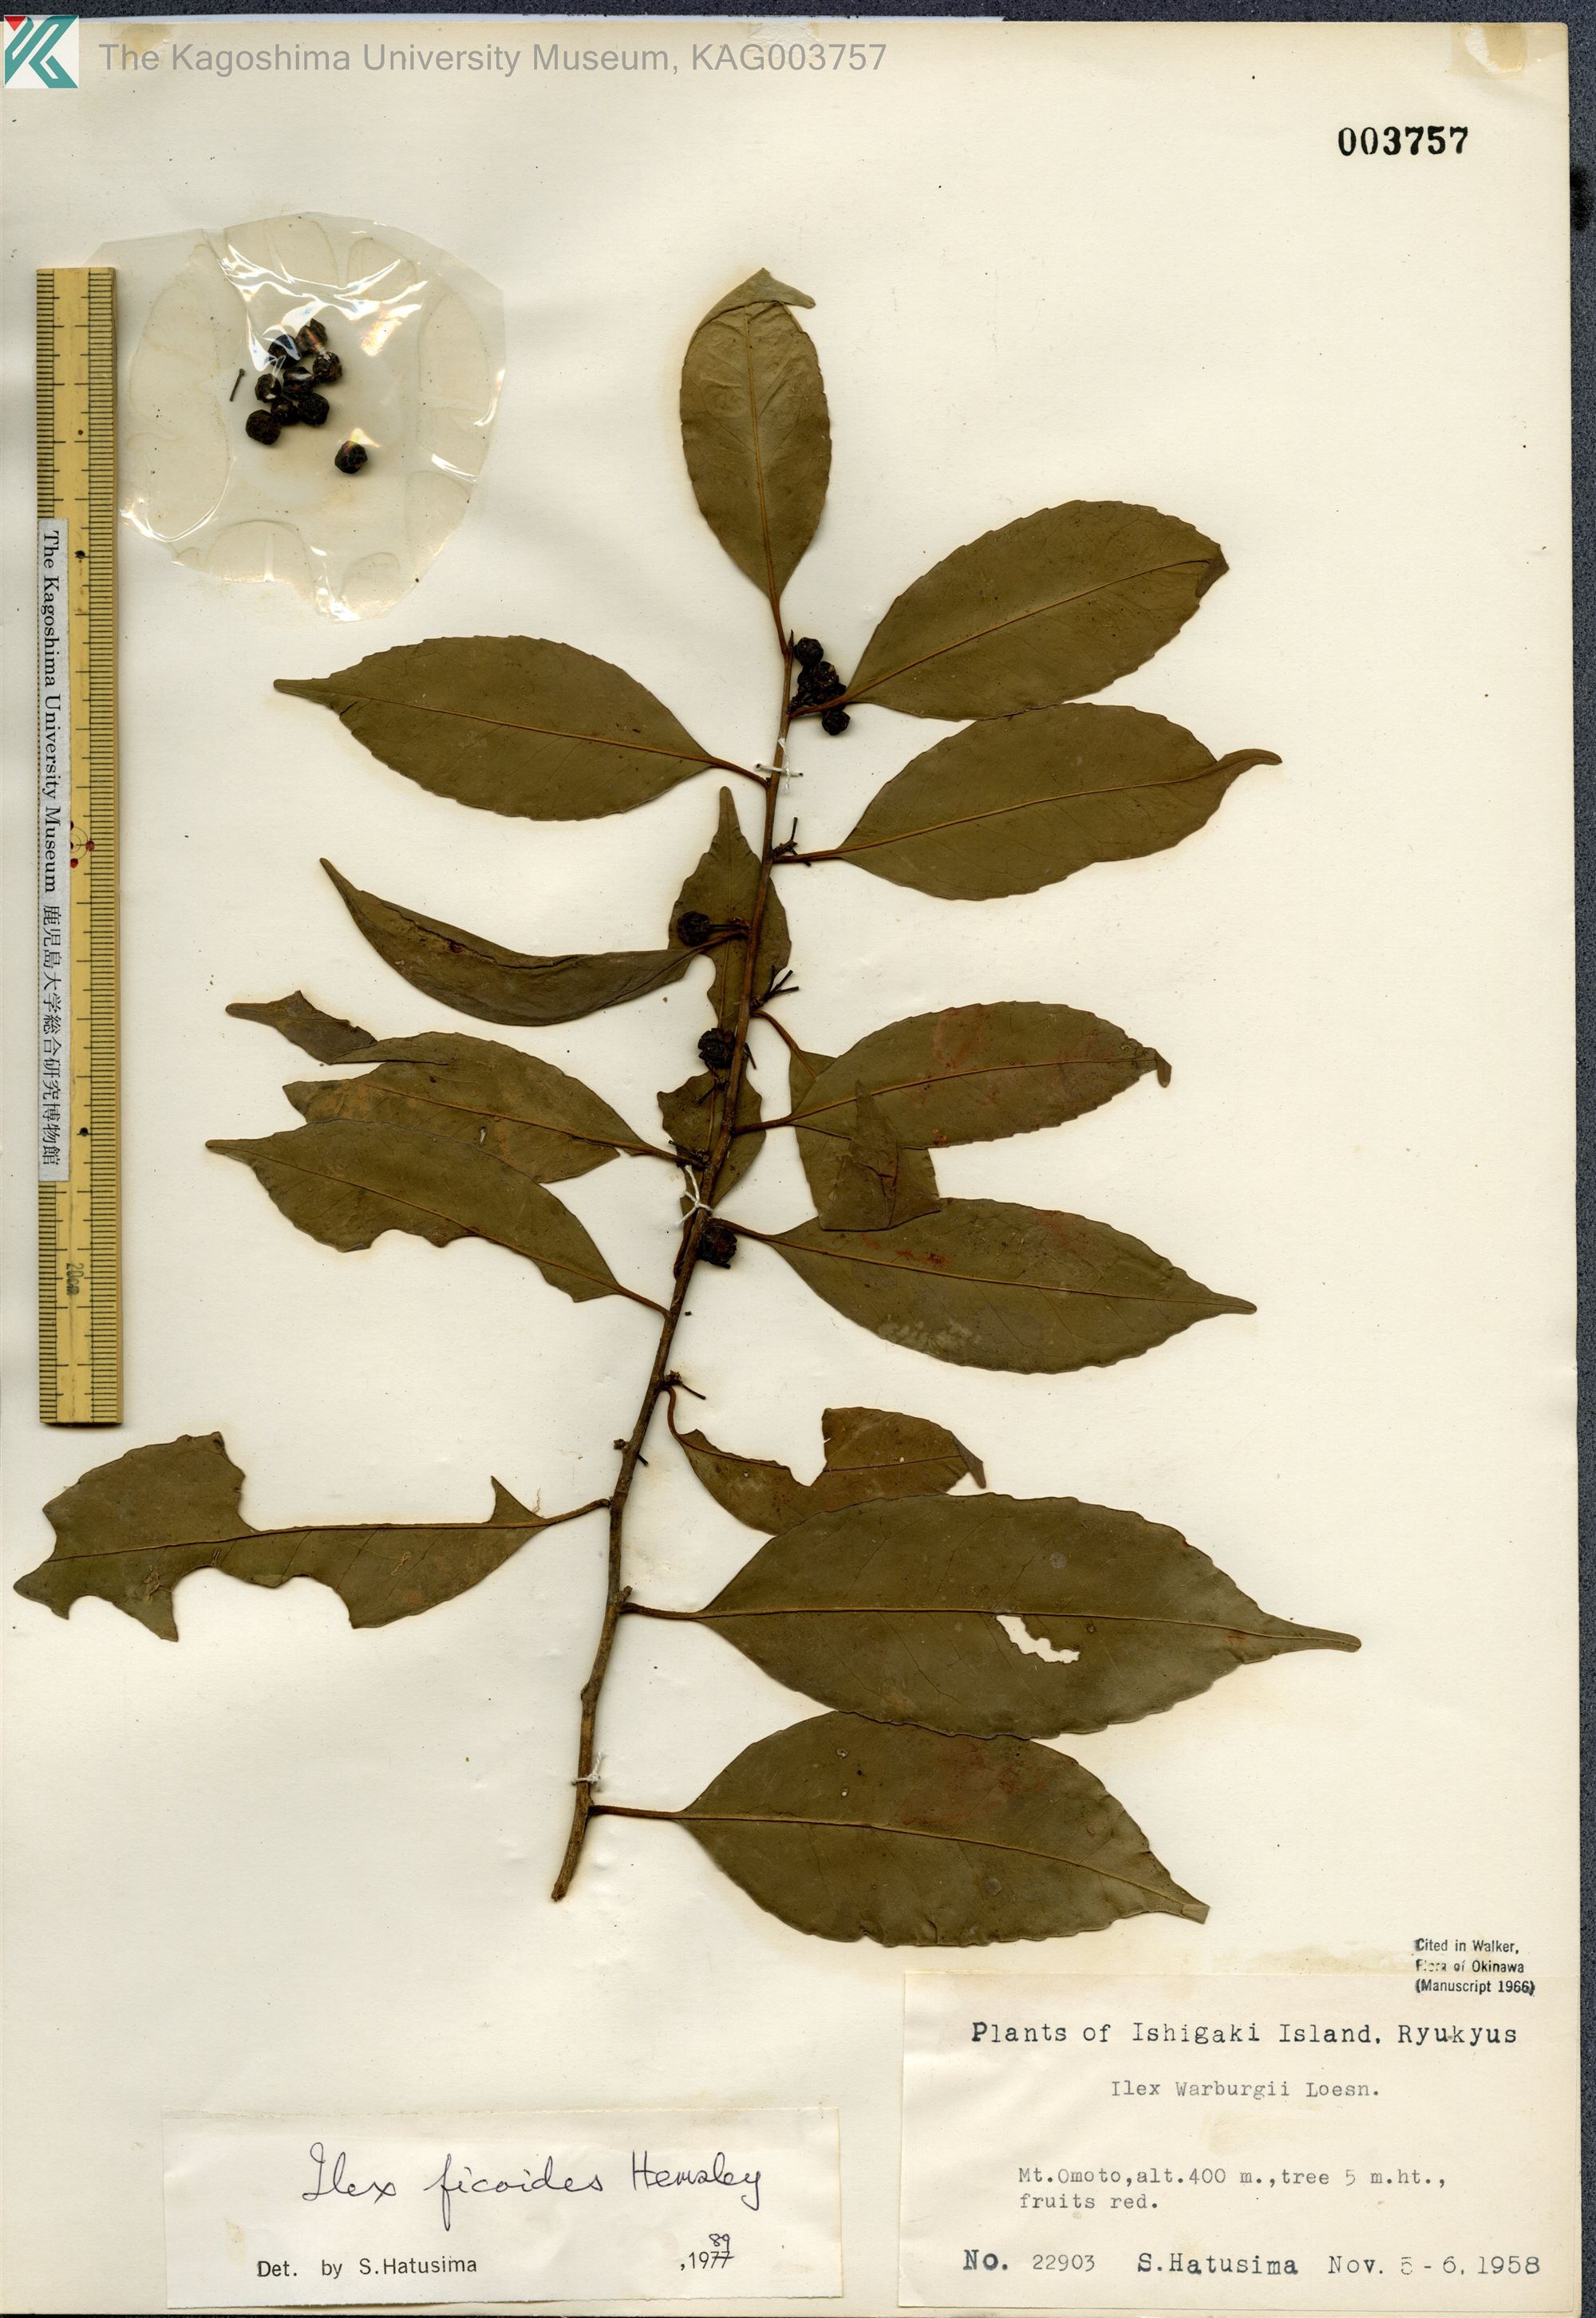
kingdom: Plantae
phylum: Tracheophyta
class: Magnoliopsida
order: Aquifoliales
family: Aquifoliaceae
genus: Ilex
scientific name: Ilex warburgii
